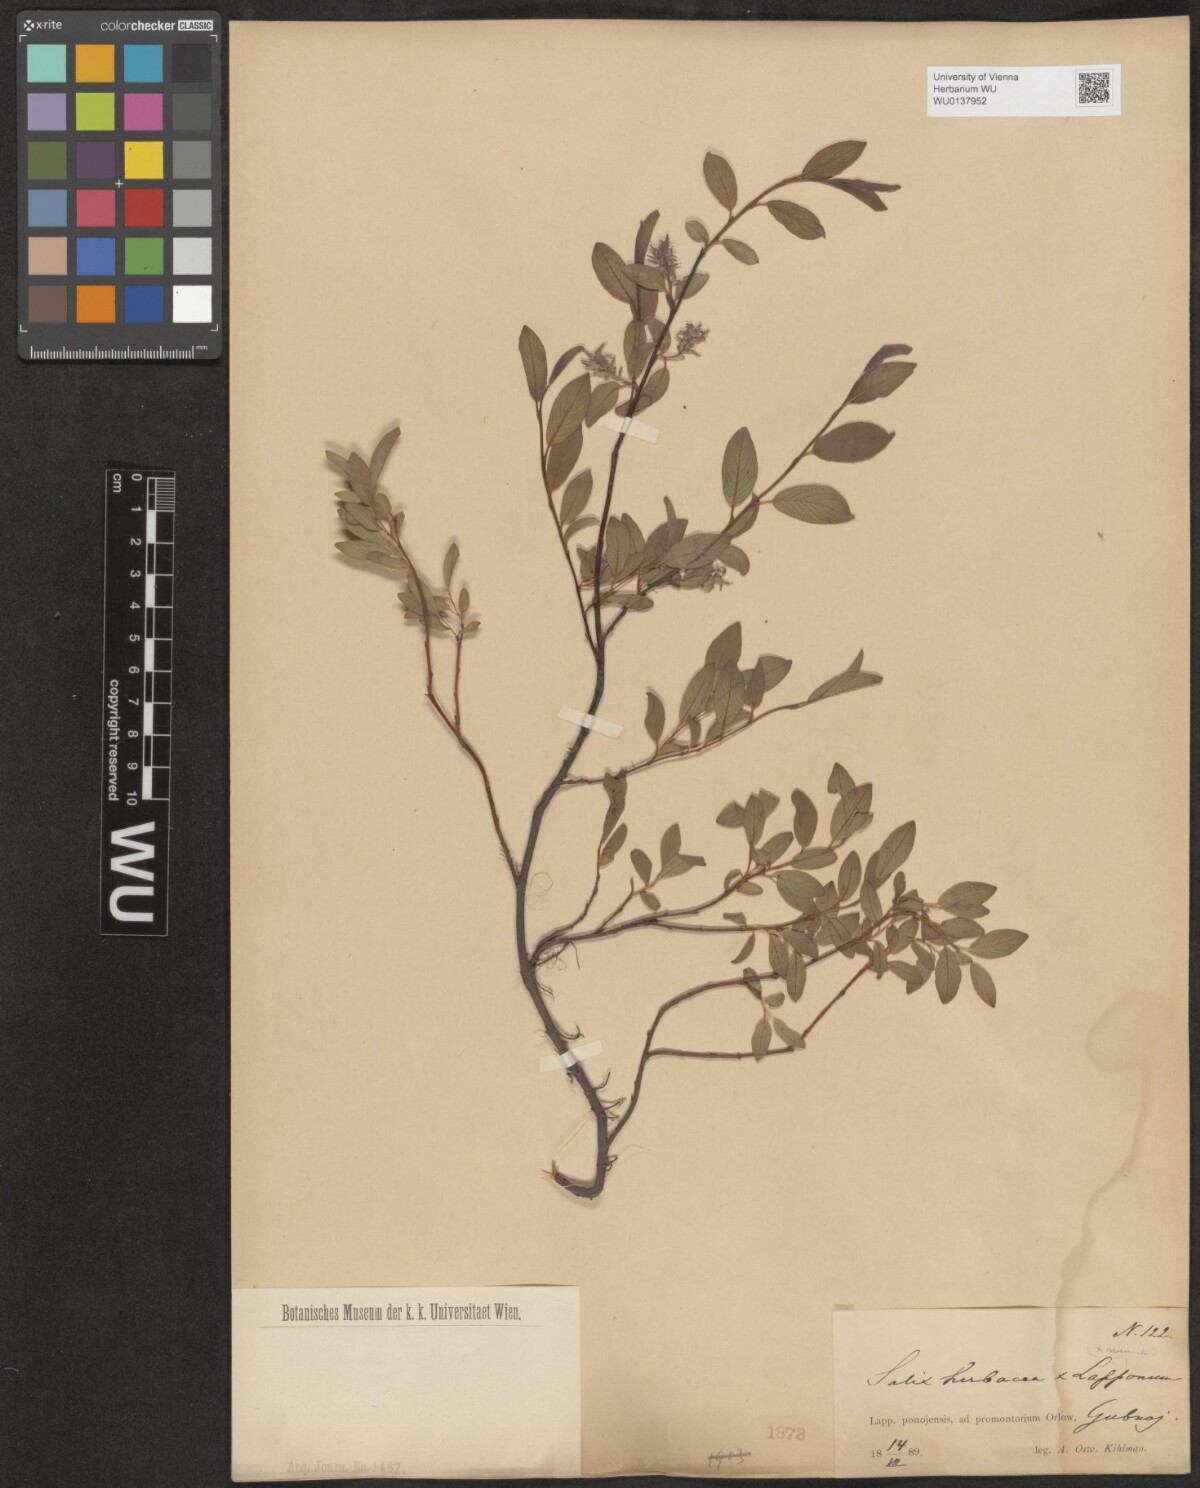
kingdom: Plantae
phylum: Tracheophyta
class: Magnoliopsida
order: Malpighiales
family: Salicaceae
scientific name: Salicaceae
